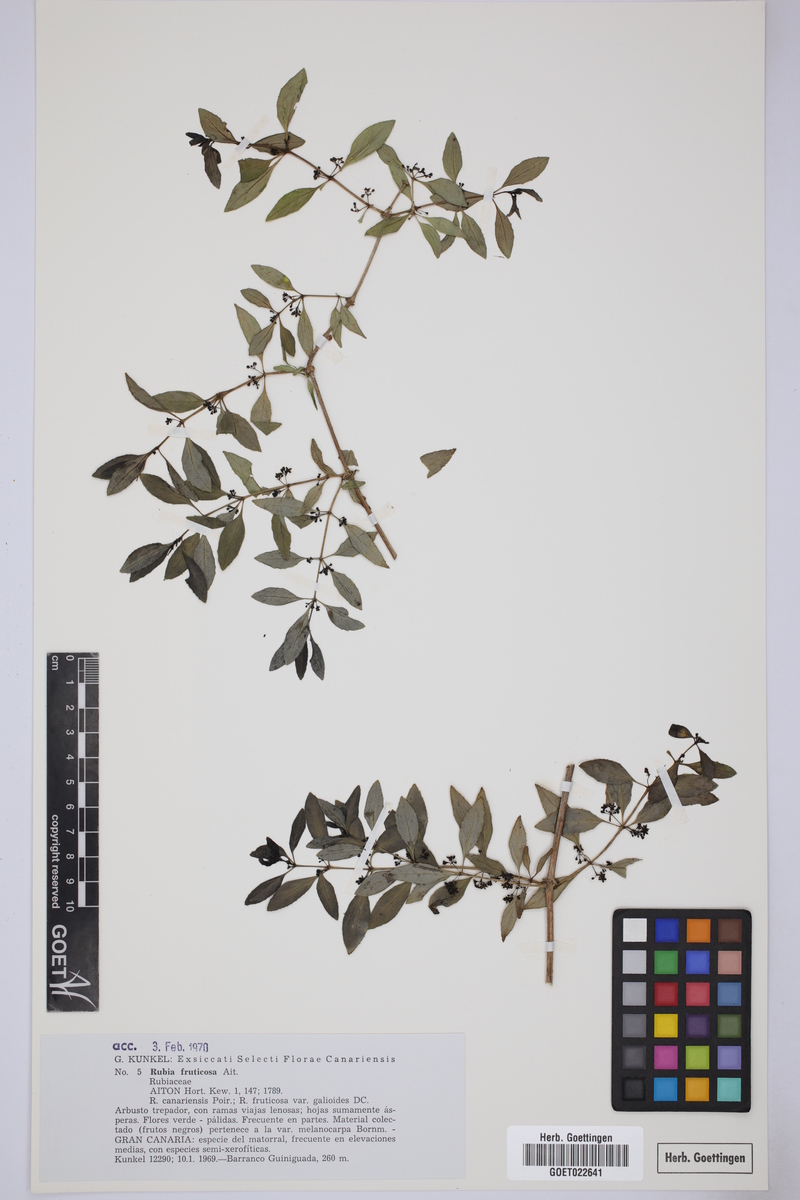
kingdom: Plantae
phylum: Tracheophyta
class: Magnoliopsida
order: Gentianales
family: Rubiaceae
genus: Rubia
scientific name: Rubia fruticosa
